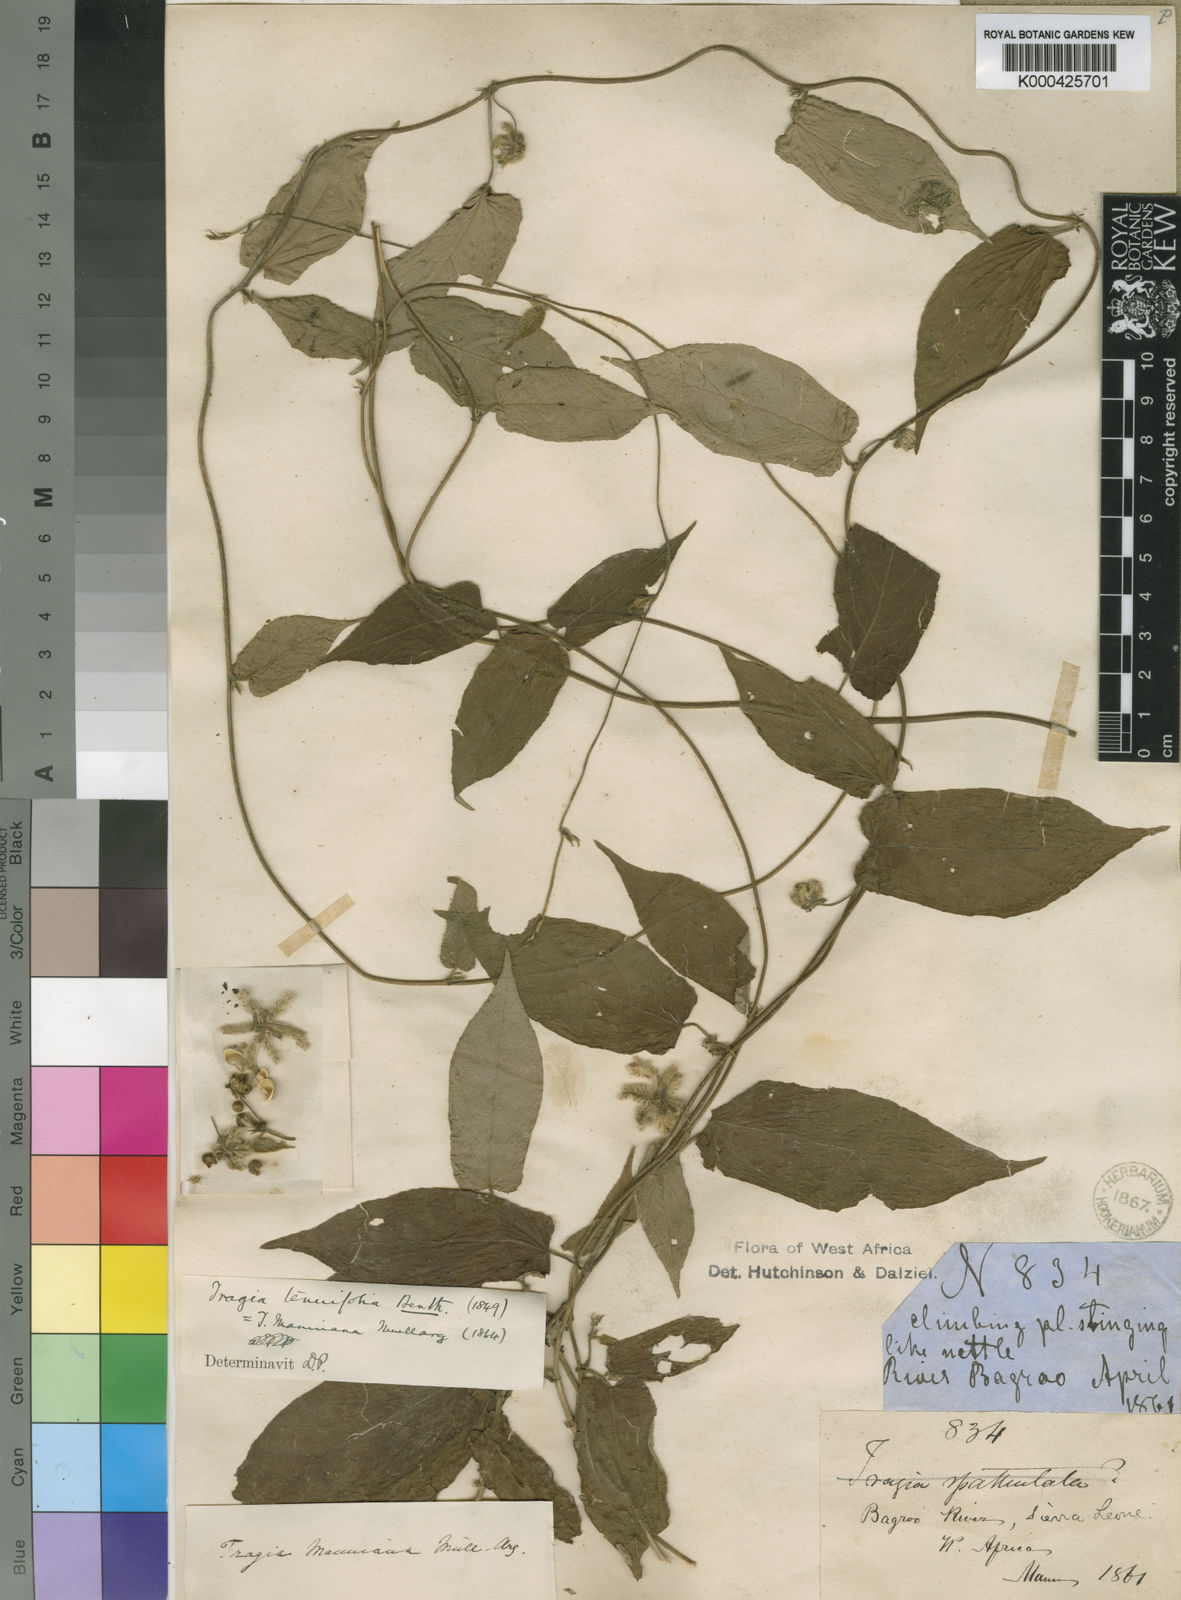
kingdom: Plantae
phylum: Tracheophyta
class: Magnoliopsida
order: Malpighiales
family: Euphorbiaceae
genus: Tragia
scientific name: Tragia tenuifolia
